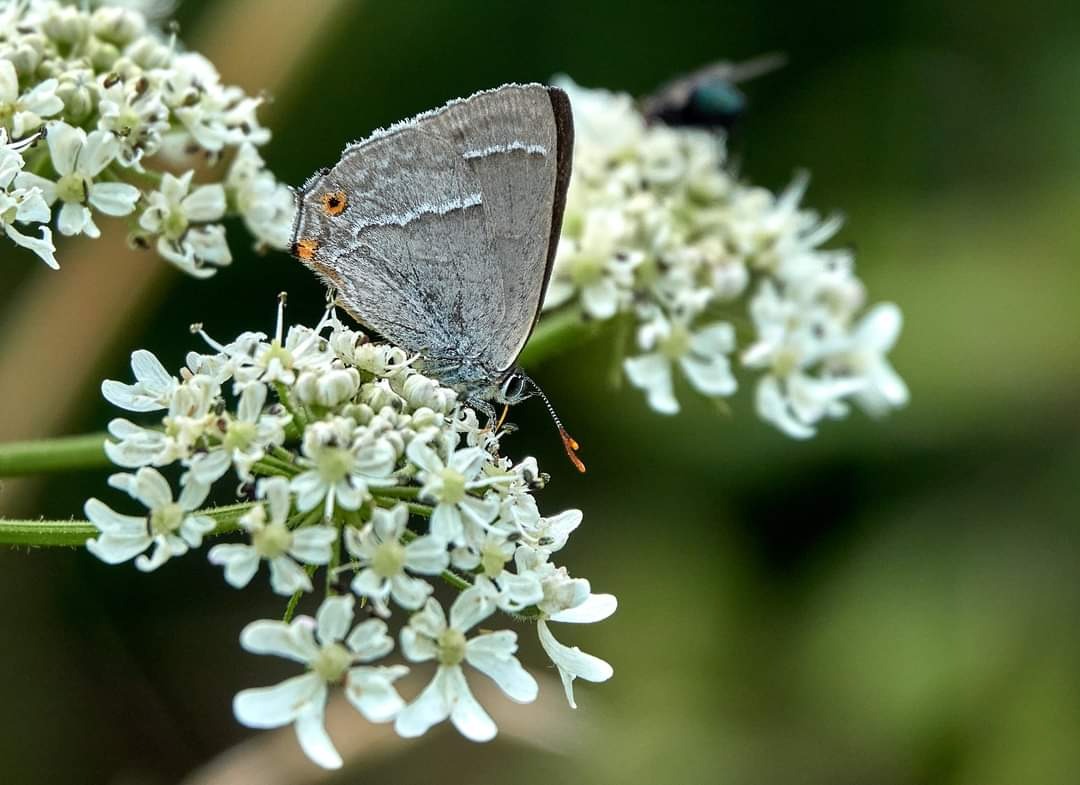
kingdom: Animalia
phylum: Arthropoda
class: Insecta
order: Lepidoptera
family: Lycaenidae
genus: Quercusia
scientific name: Quercusia quercus
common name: Blåhale
